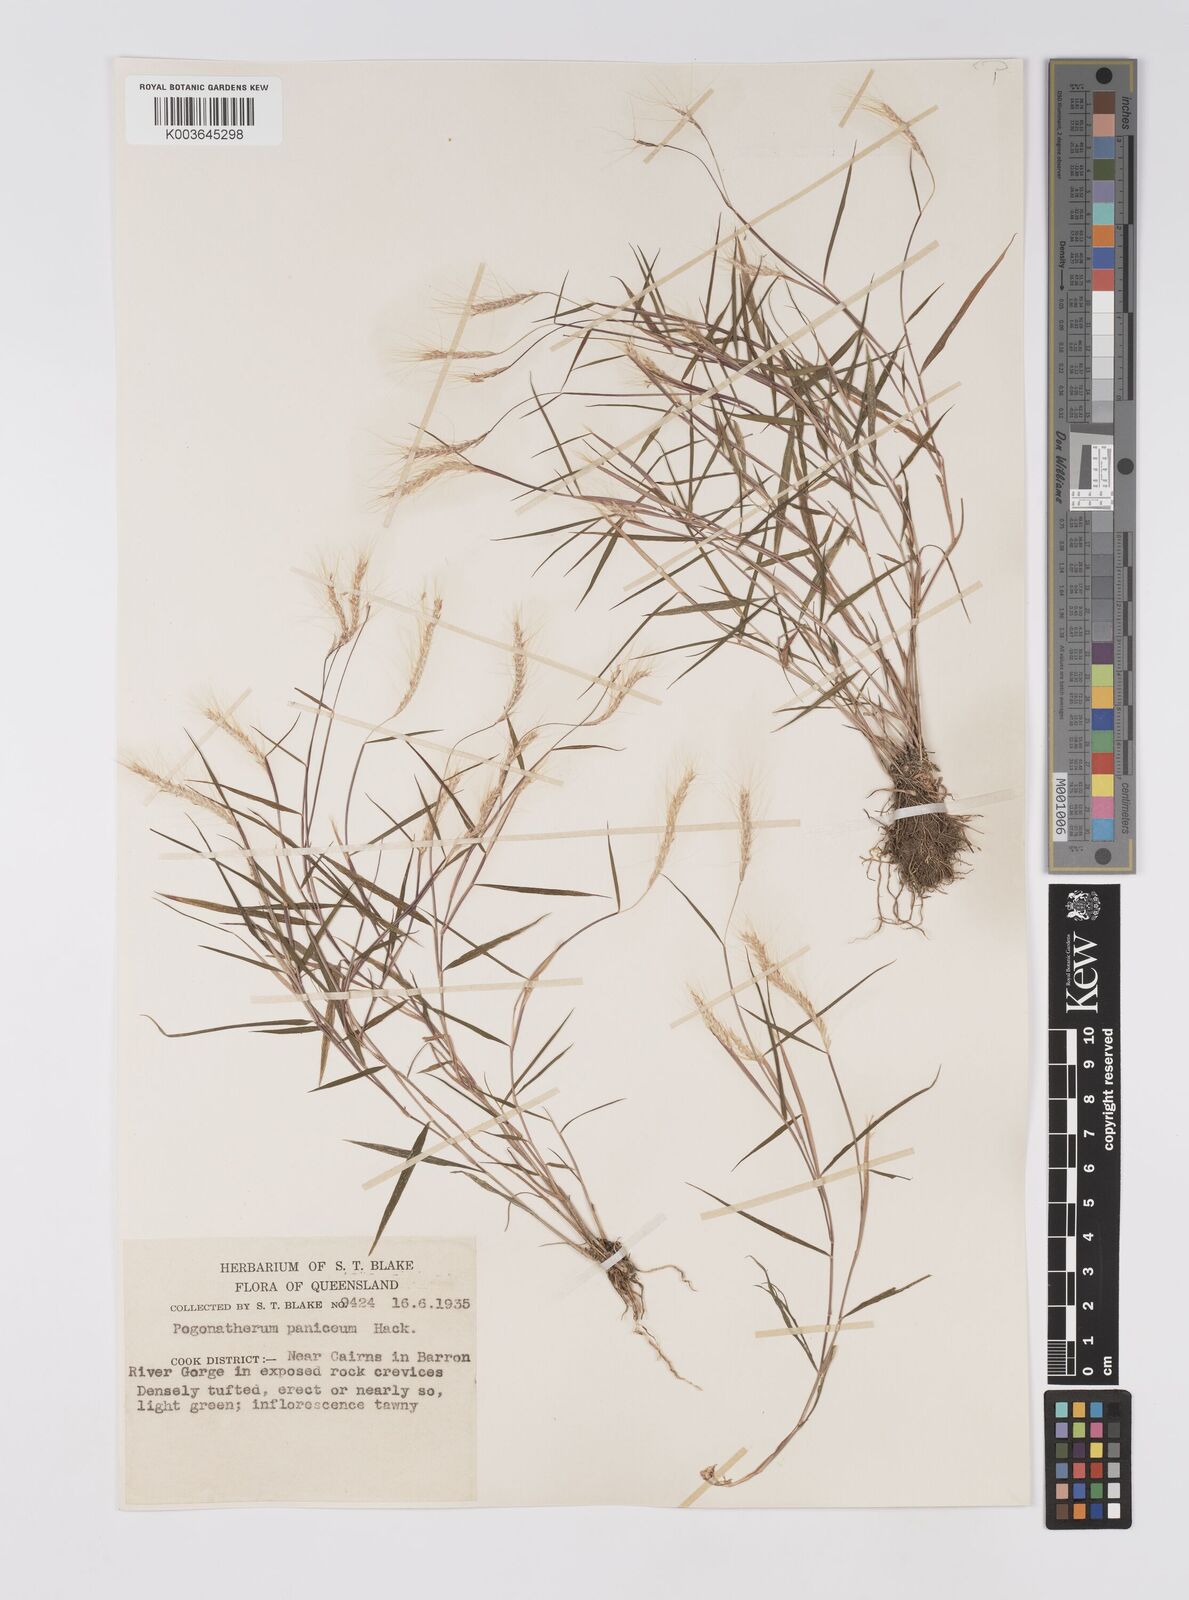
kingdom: Plantae
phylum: Tracheophyta
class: Liliopsida
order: Poales
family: Poaceae
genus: Pogonatherum
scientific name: Pogonatherum paniceum
